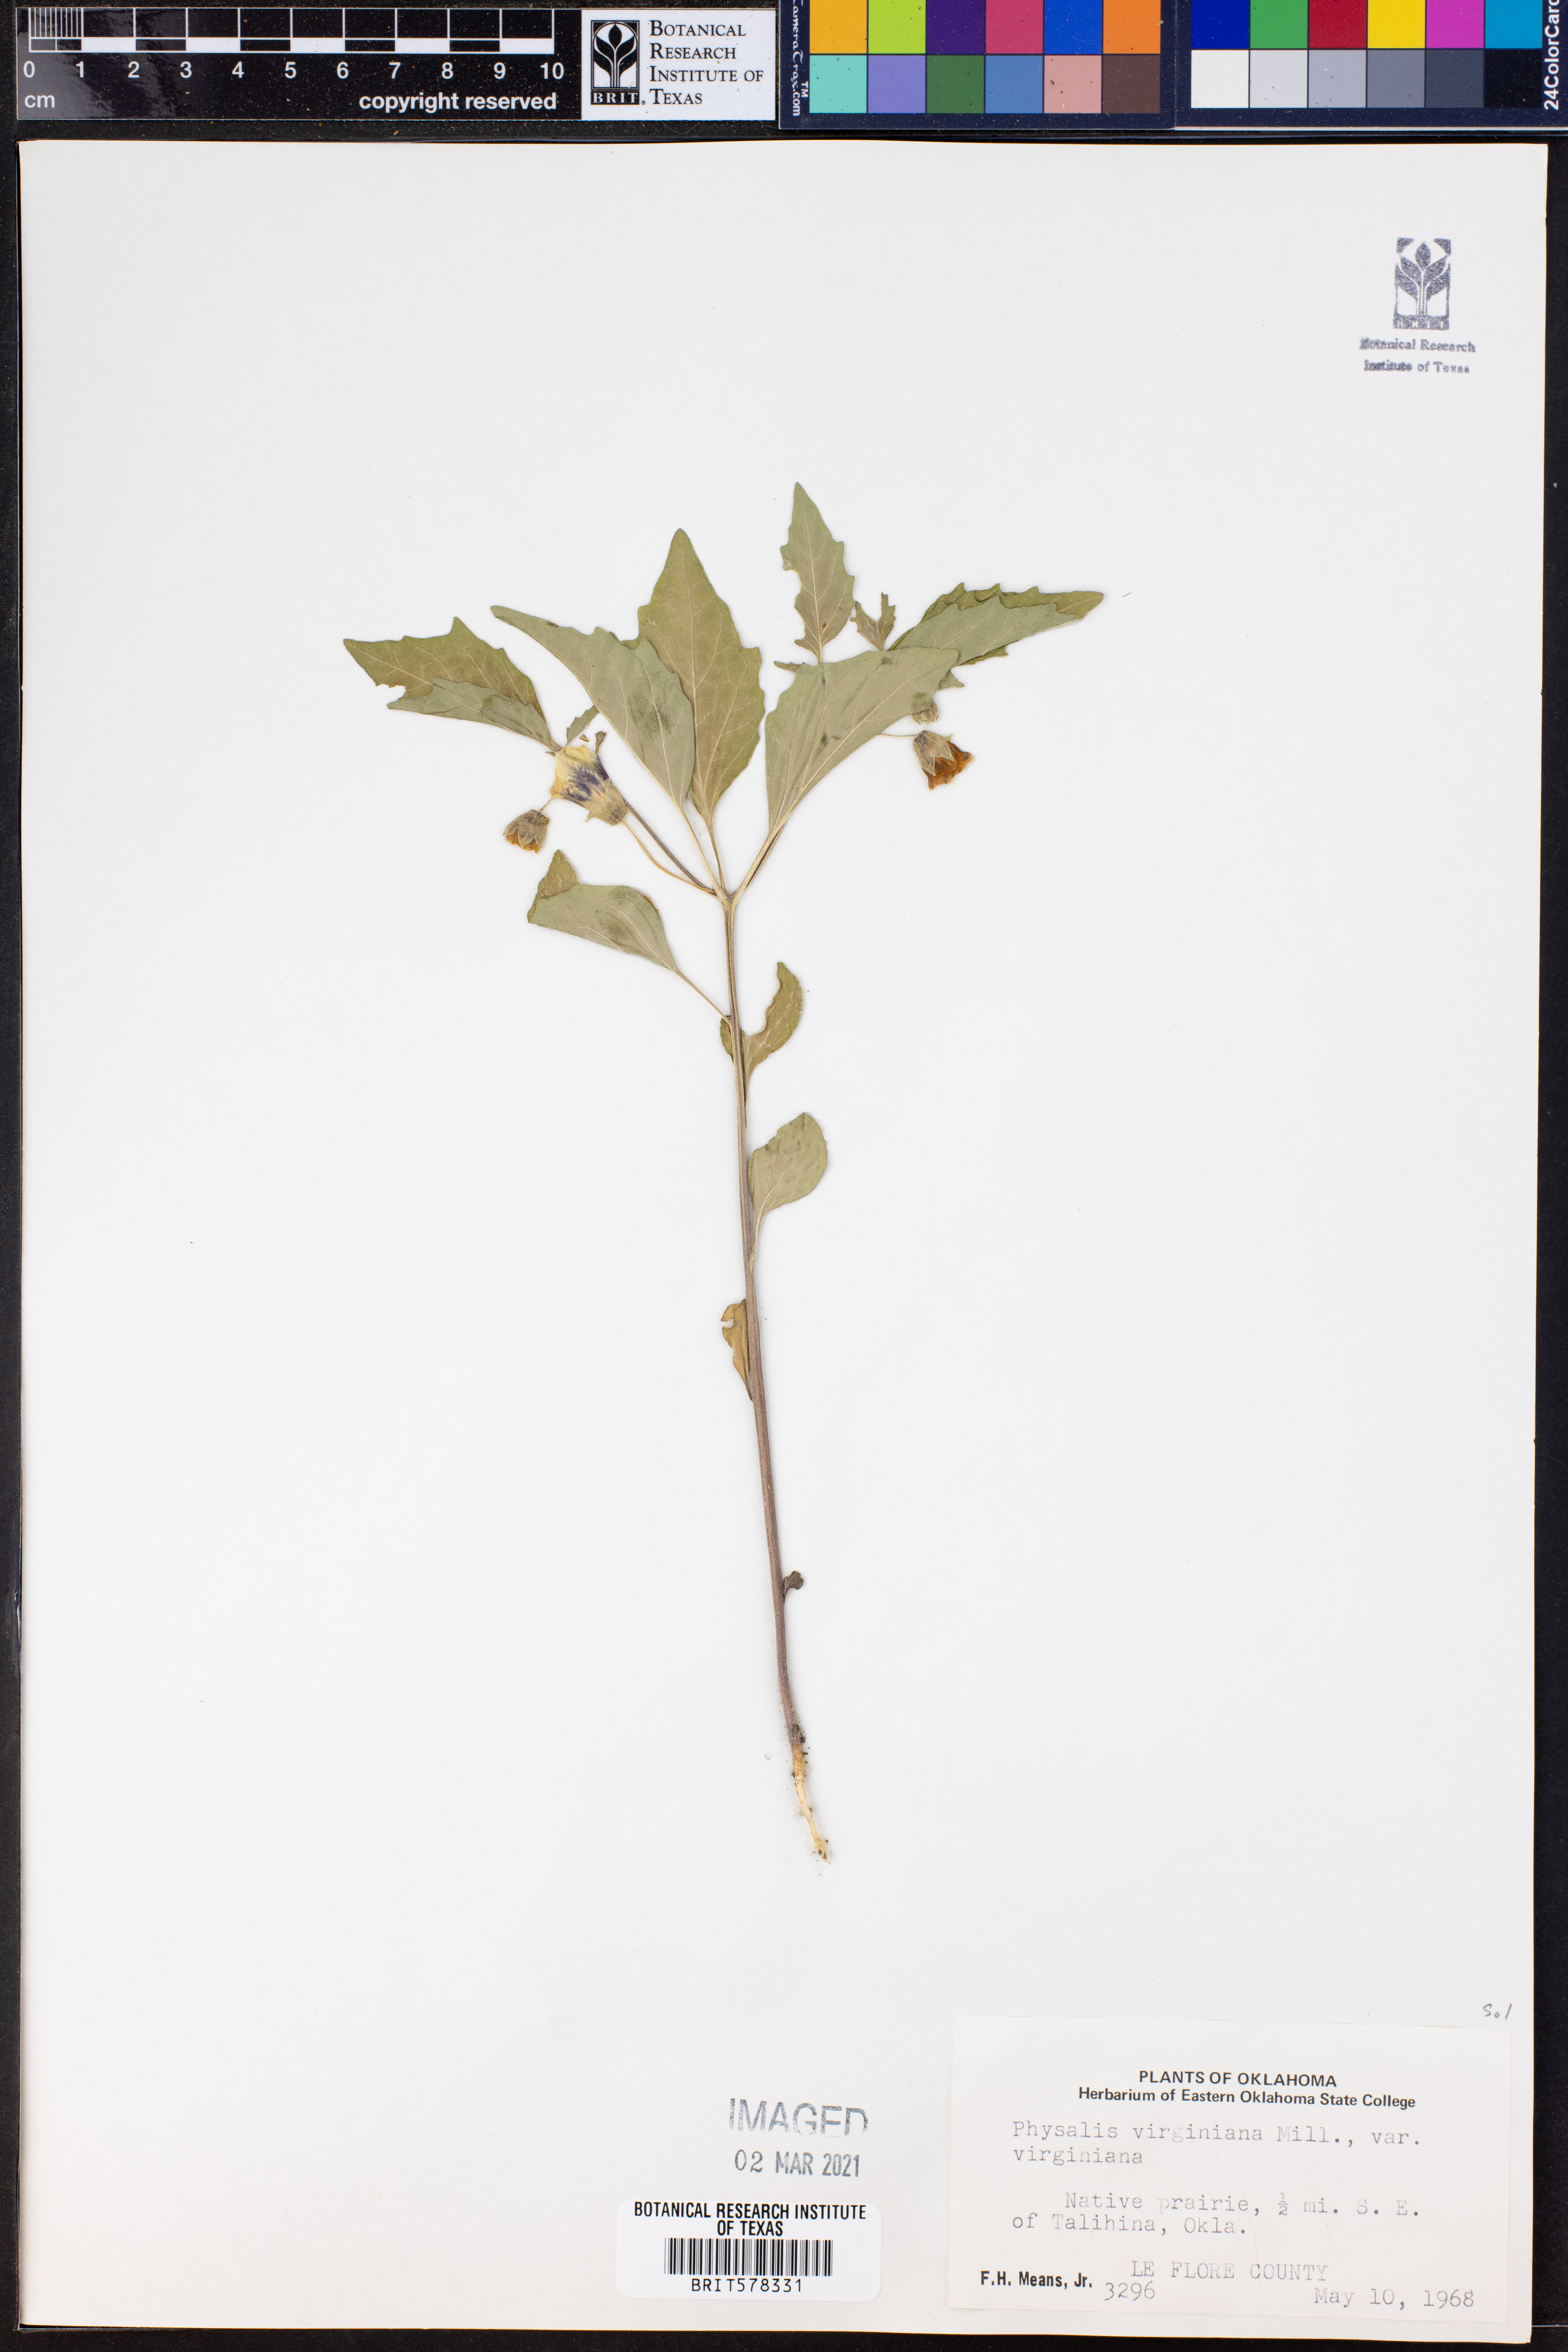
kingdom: Plantae
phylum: Tracheophyta
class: Magnoliopsida
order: Solanales
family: Solanaceae
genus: Physalis
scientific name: Physalis virginiana
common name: Virginia ground-cherry
